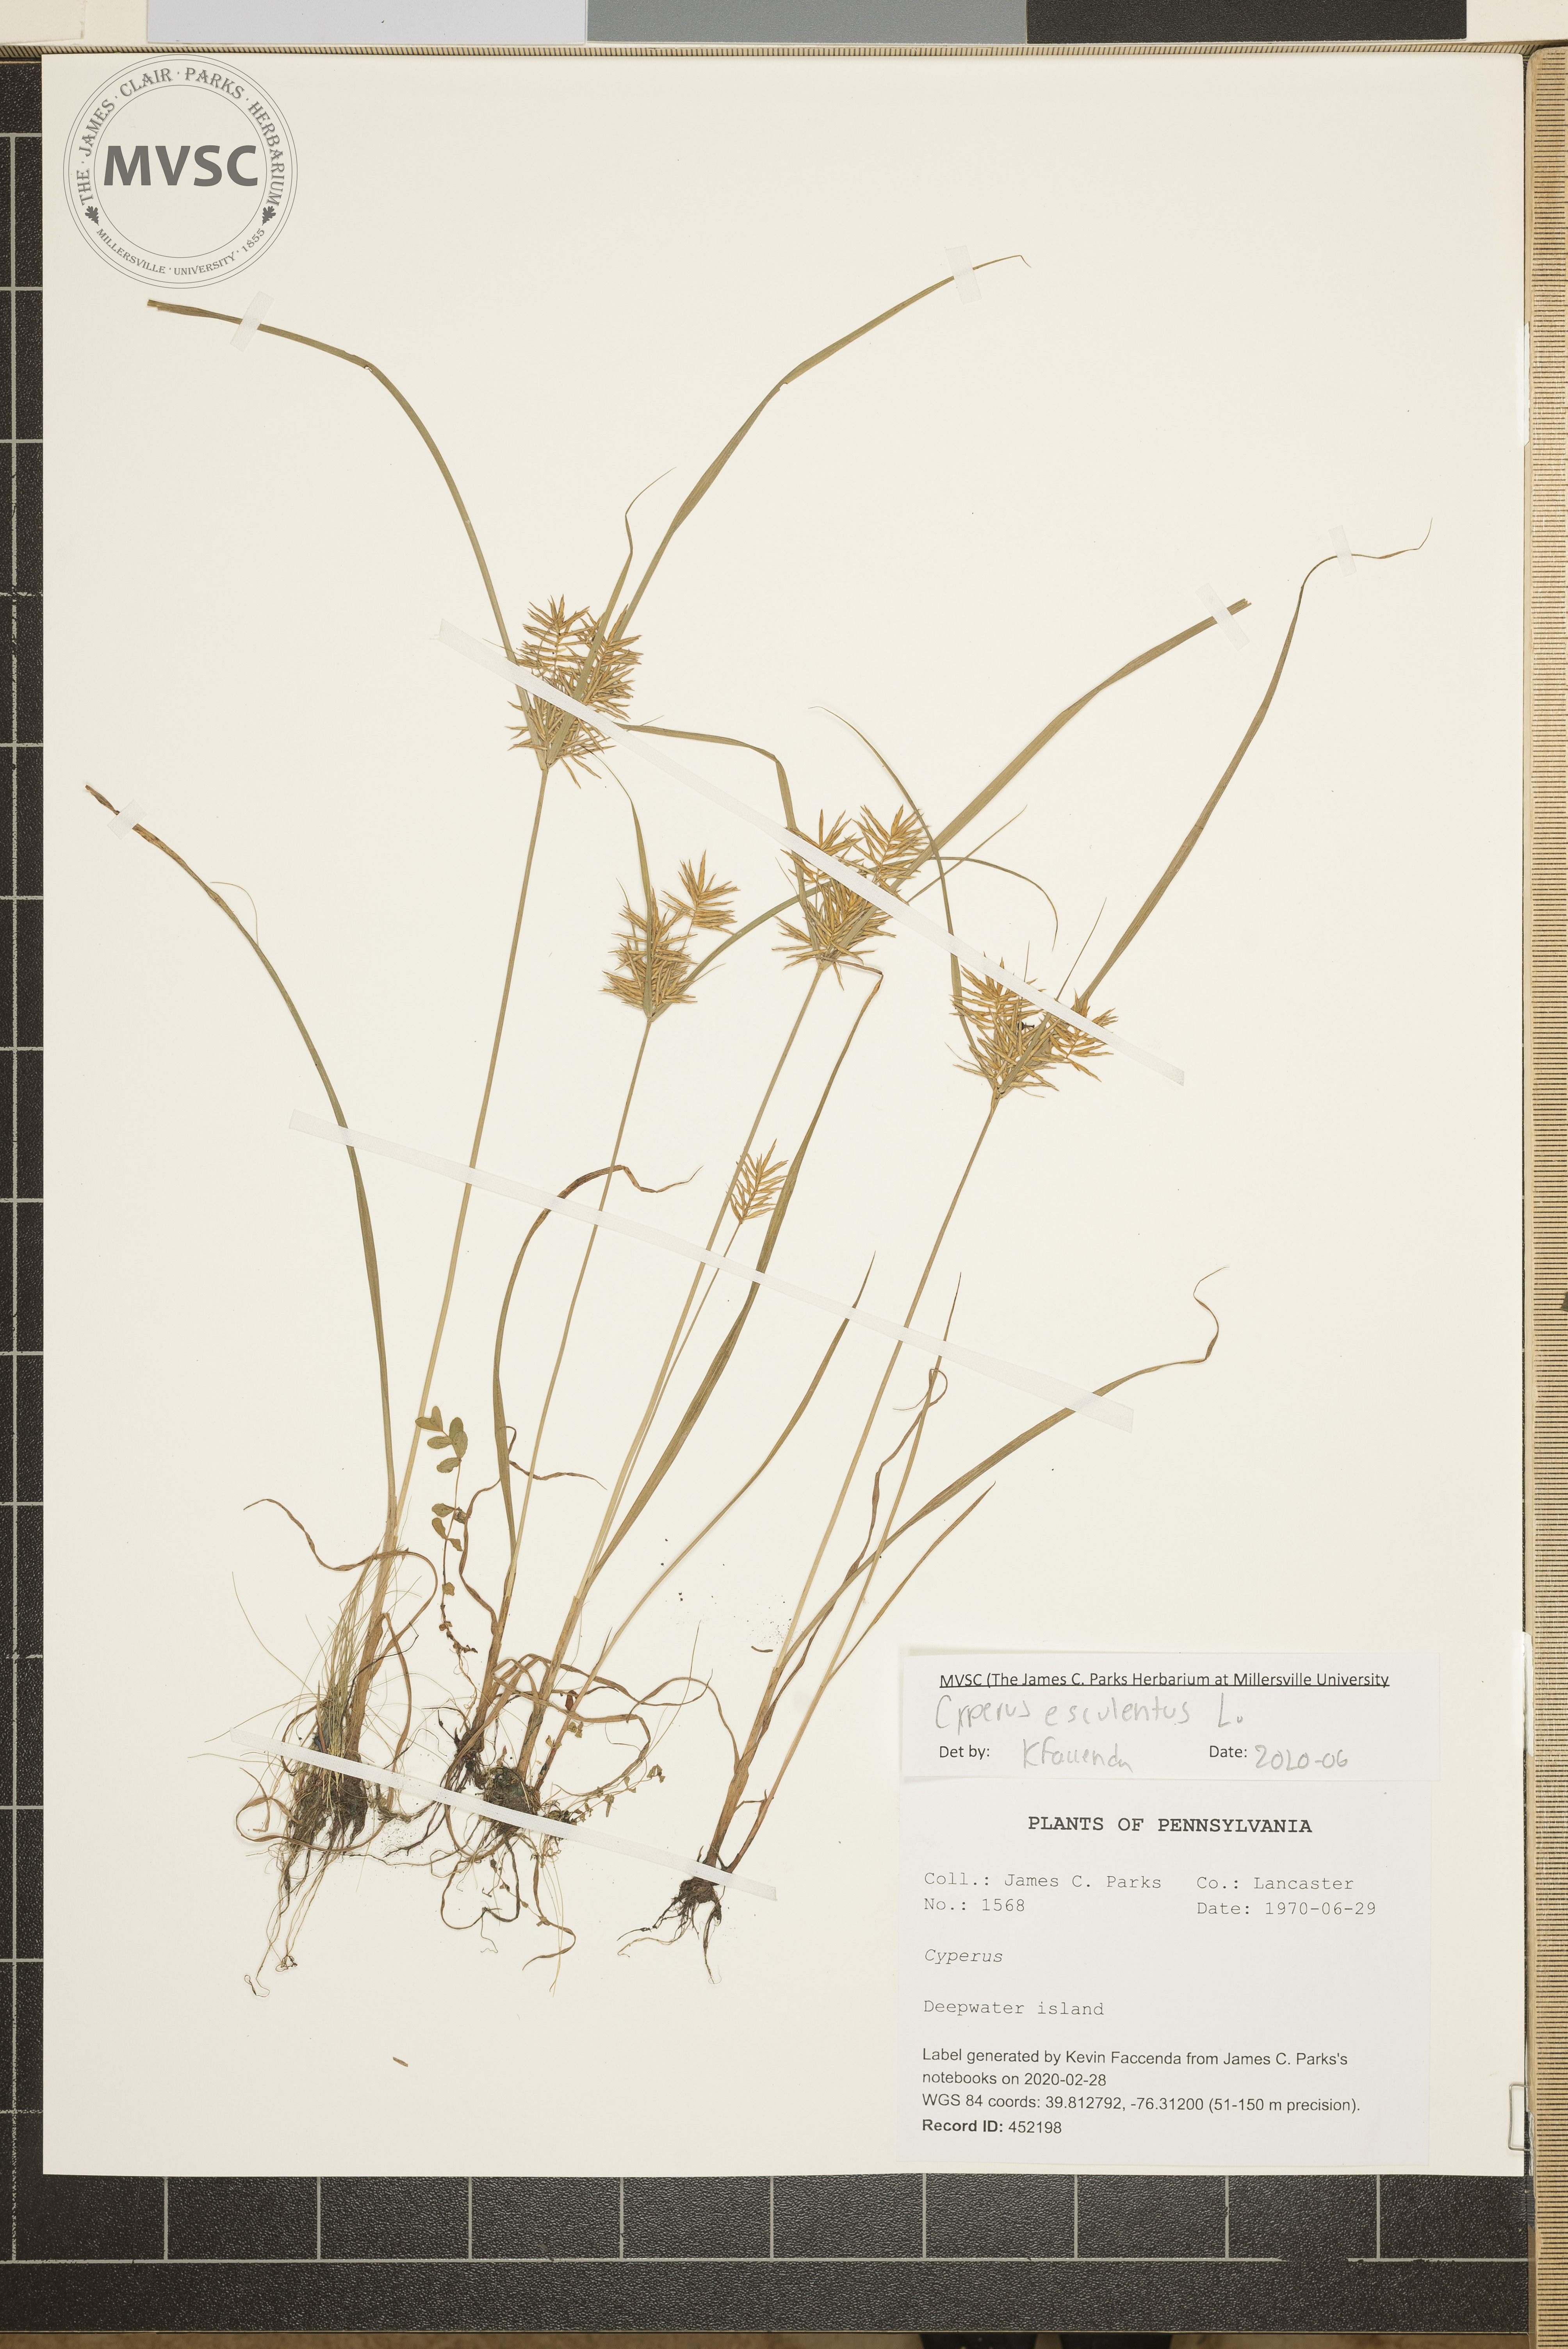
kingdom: Plantae
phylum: Tracheophyta
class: Liliopsida
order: Poales
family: Cyperaceae
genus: Cyperus
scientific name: Cyperus esculentus
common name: Yellow nutsedge
